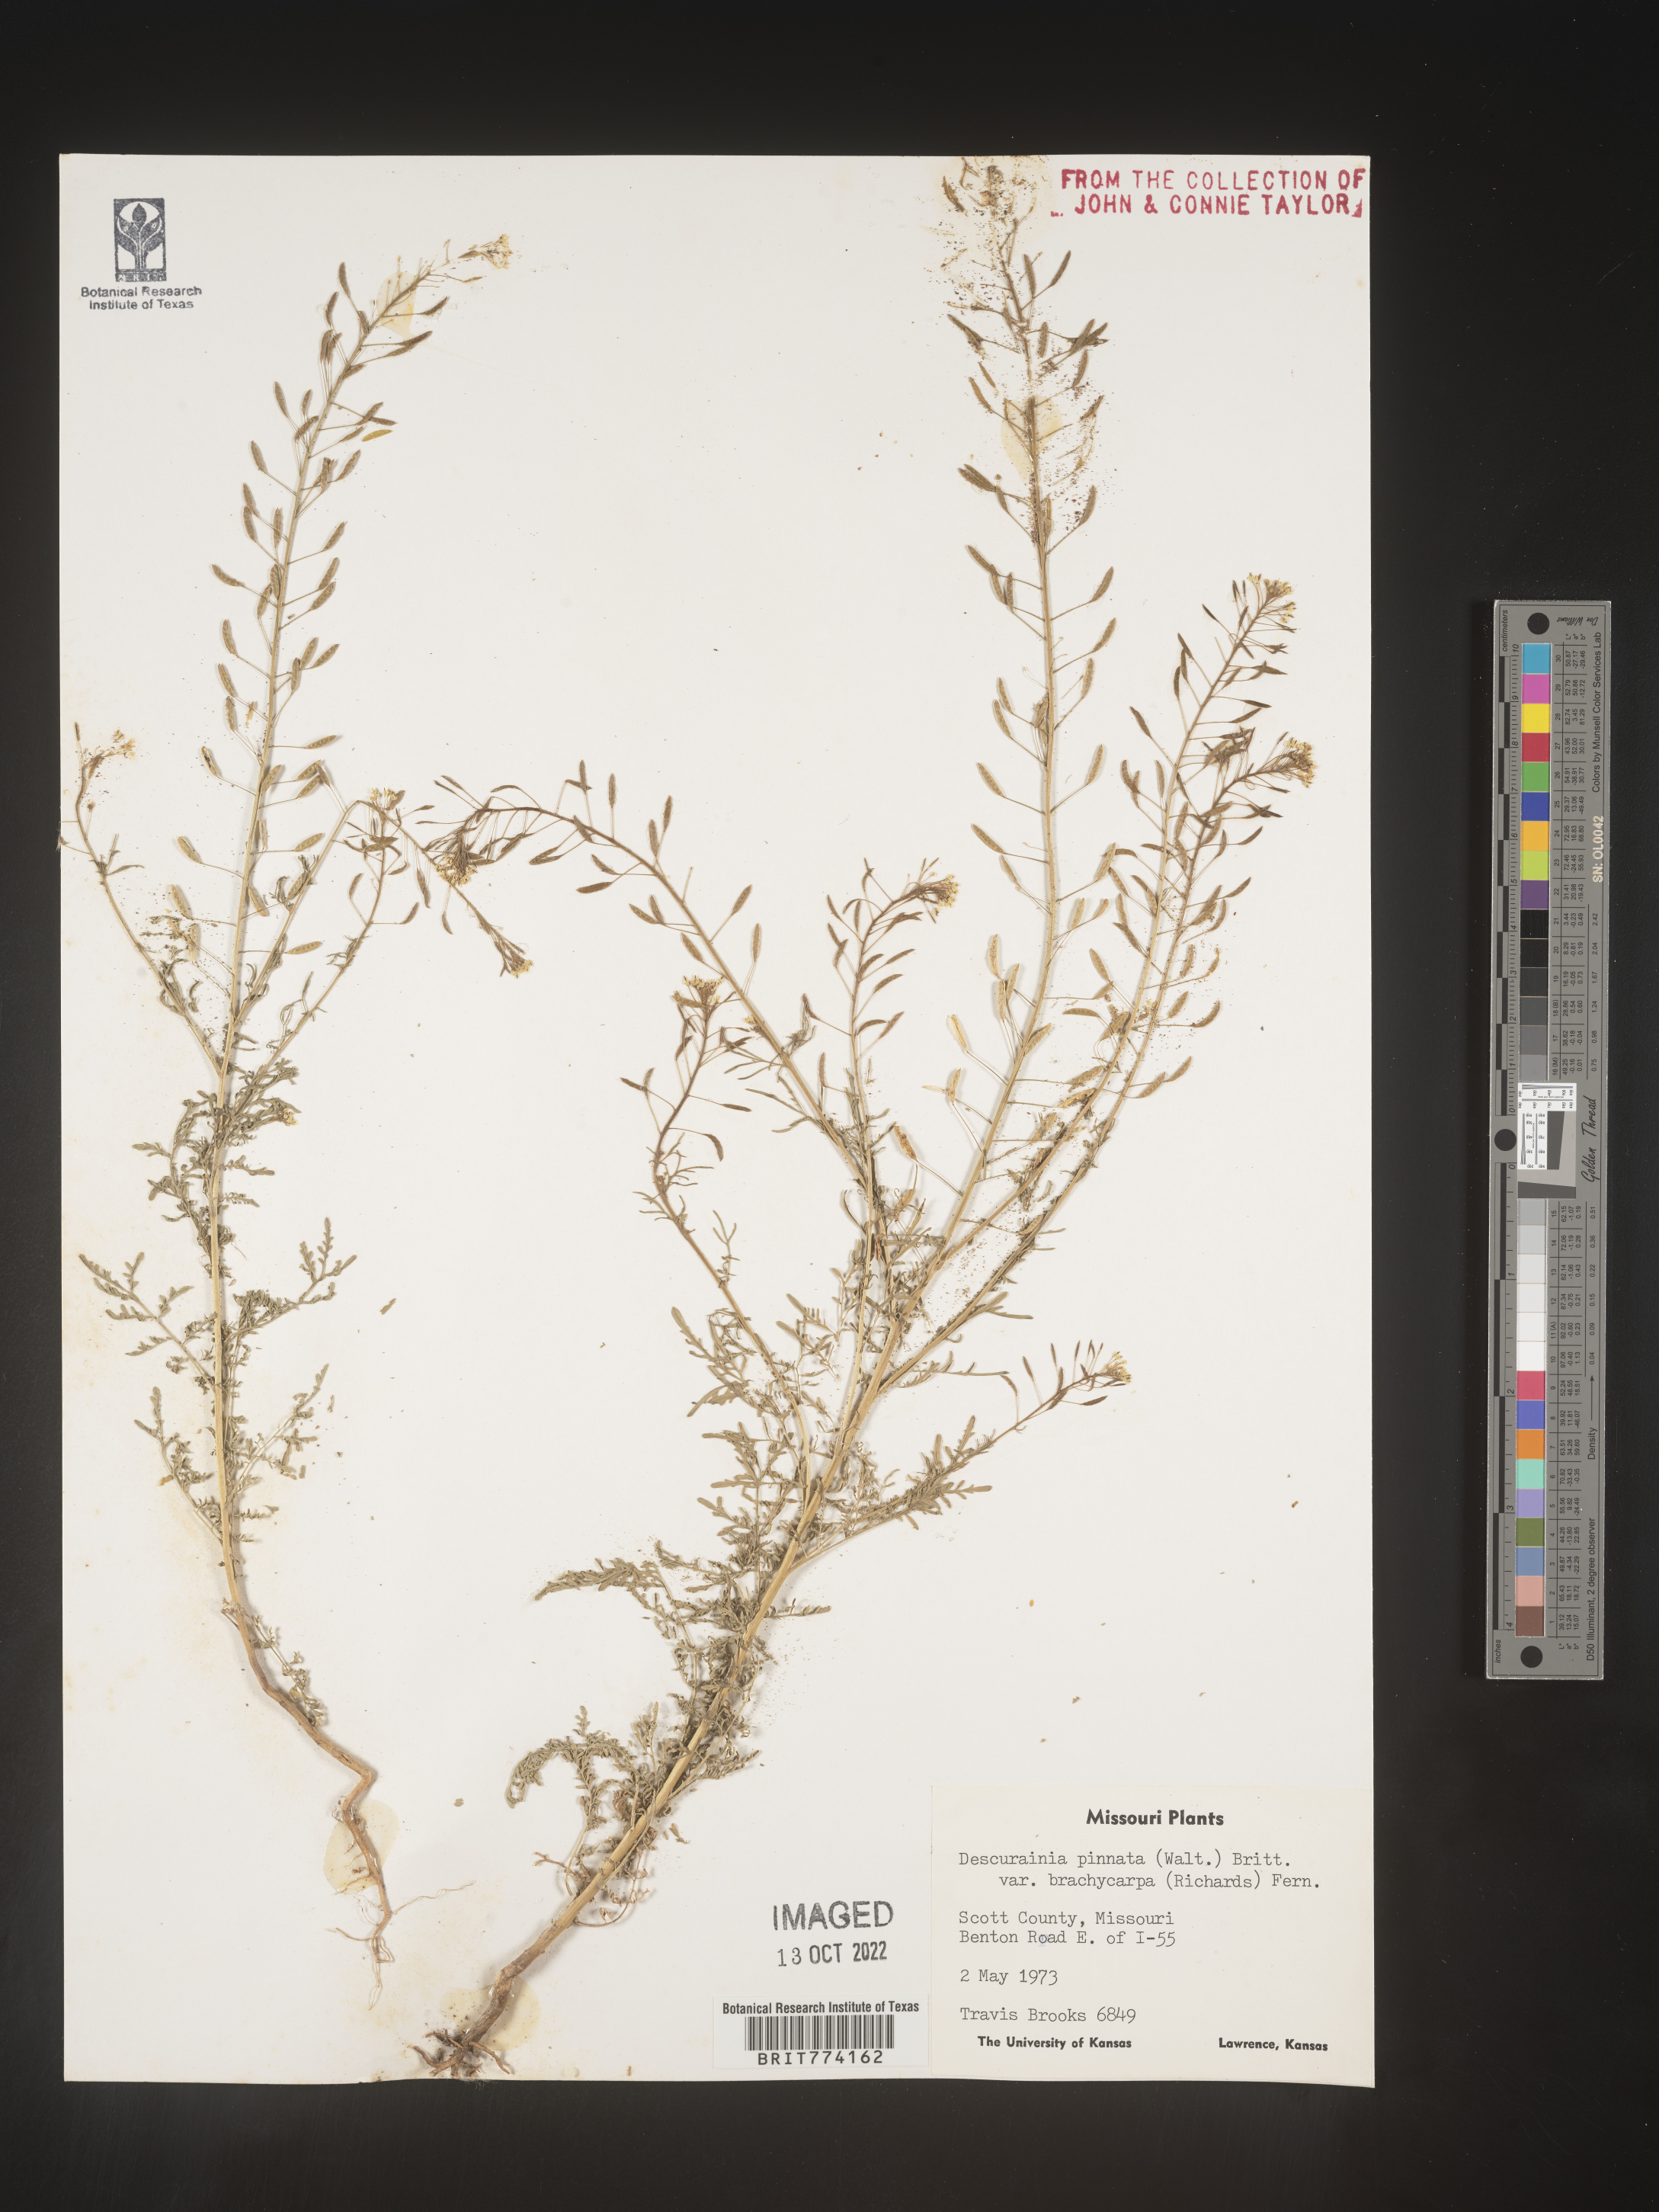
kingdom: Plantae
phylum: Tracheophyta
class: Magnoliopsida
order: Brassicales
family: Brassicaceae
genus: Descurainia
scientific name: Descurainia pinnata
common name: Western tansy mustard
